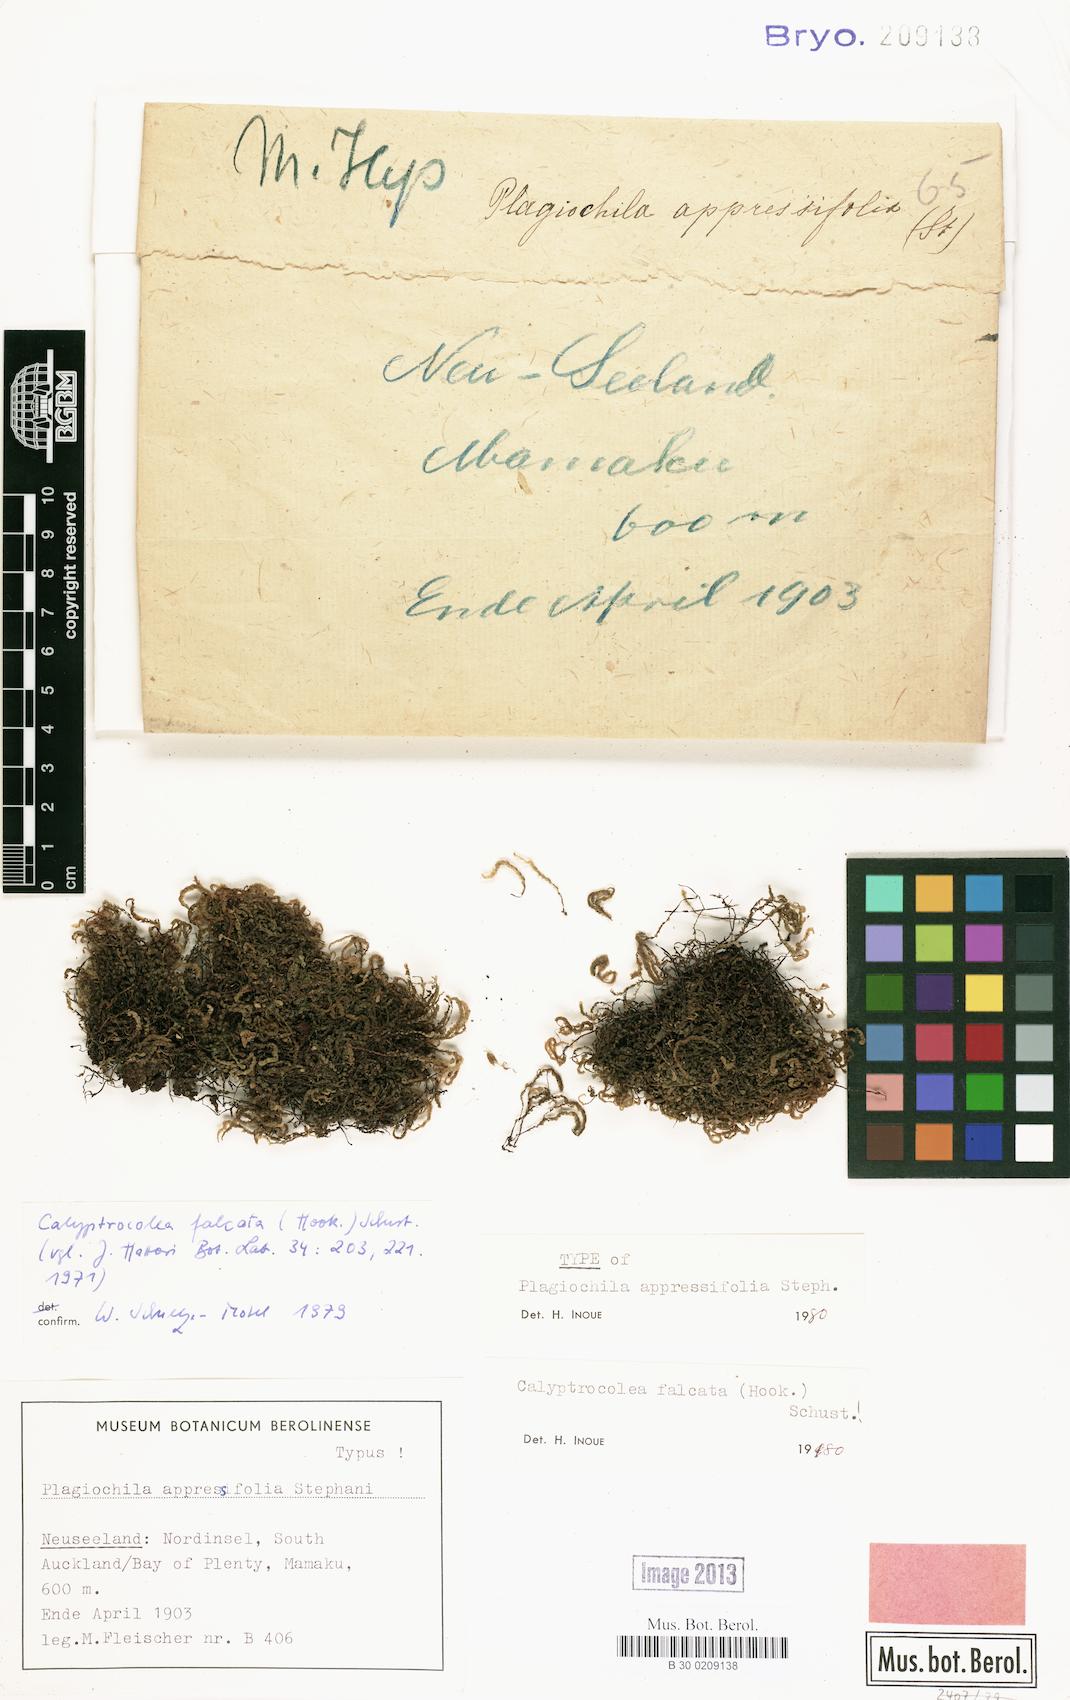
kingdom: Plantae
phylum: Marchantiophyta
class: Jungermanniopsida
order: Jungermanniales
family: Adelanthaceae
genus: Adelanthus
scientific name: Adelanthus falcatus
